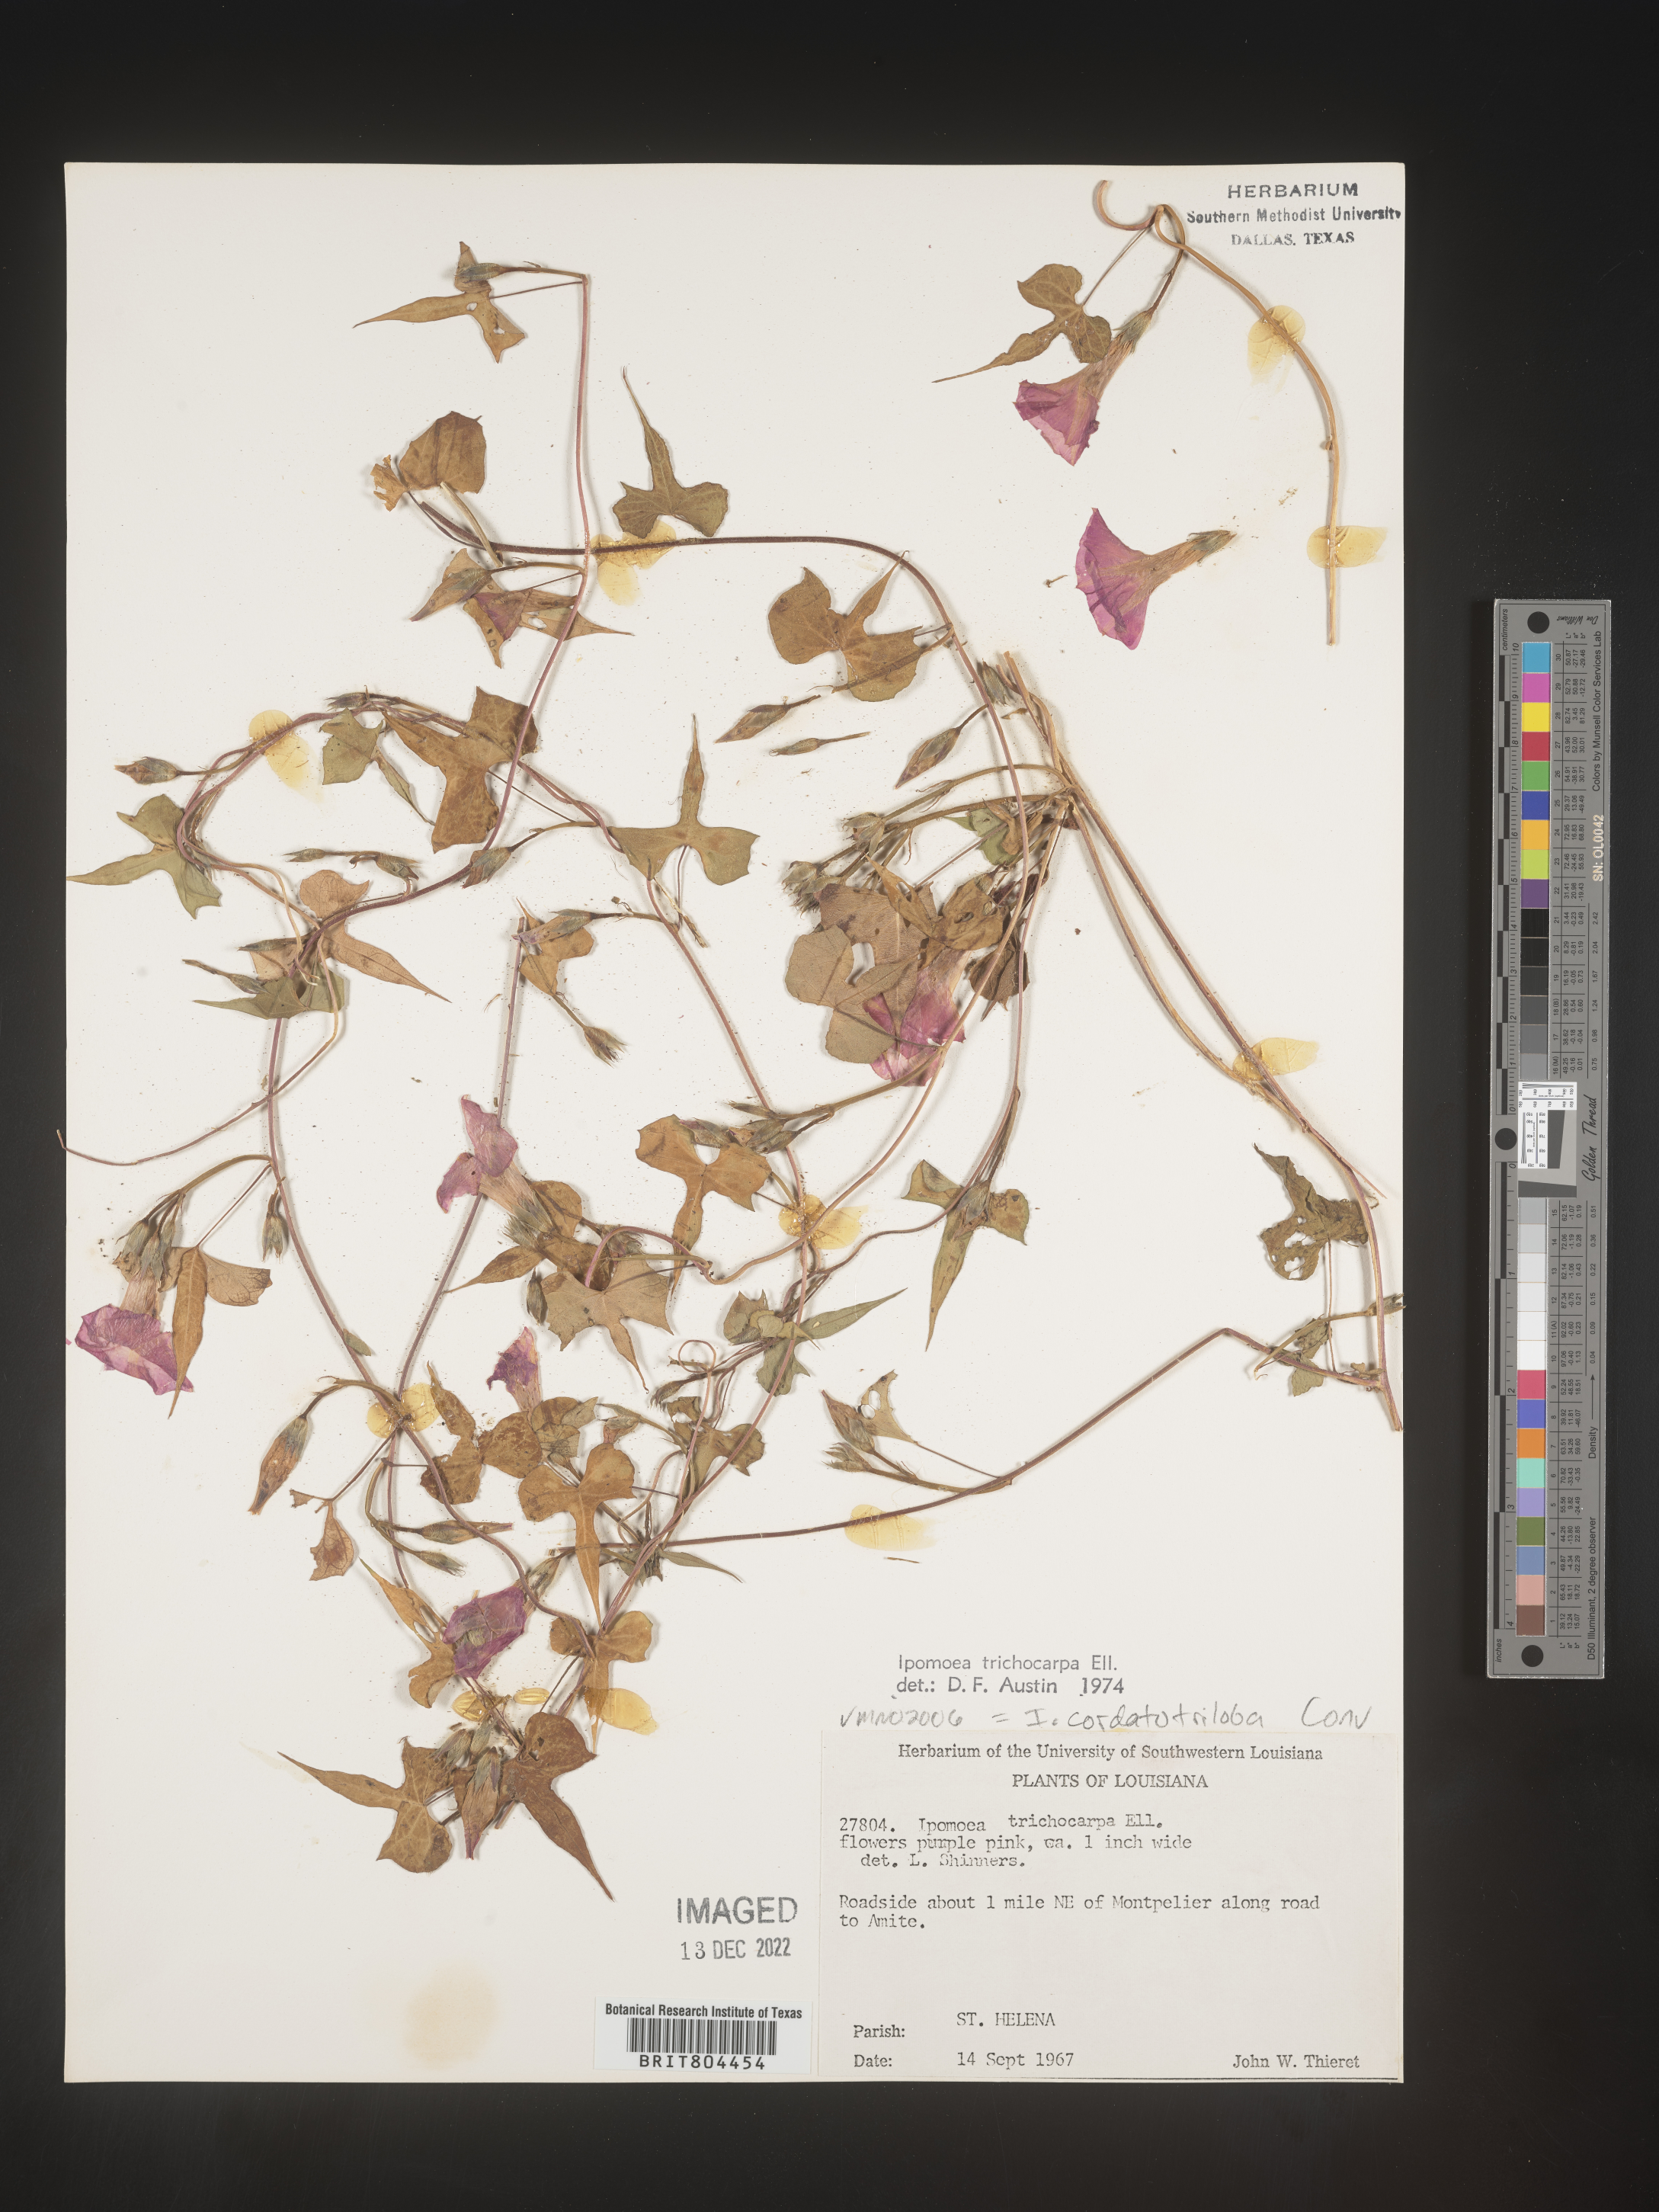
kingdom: Plantae
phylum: Tracheophyta
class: Magnoliopsida
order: Solanales
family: Convolvulaceae
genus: Ipomoea
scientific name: Ipomoea cordatotriloba
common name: Cotton morning glory
